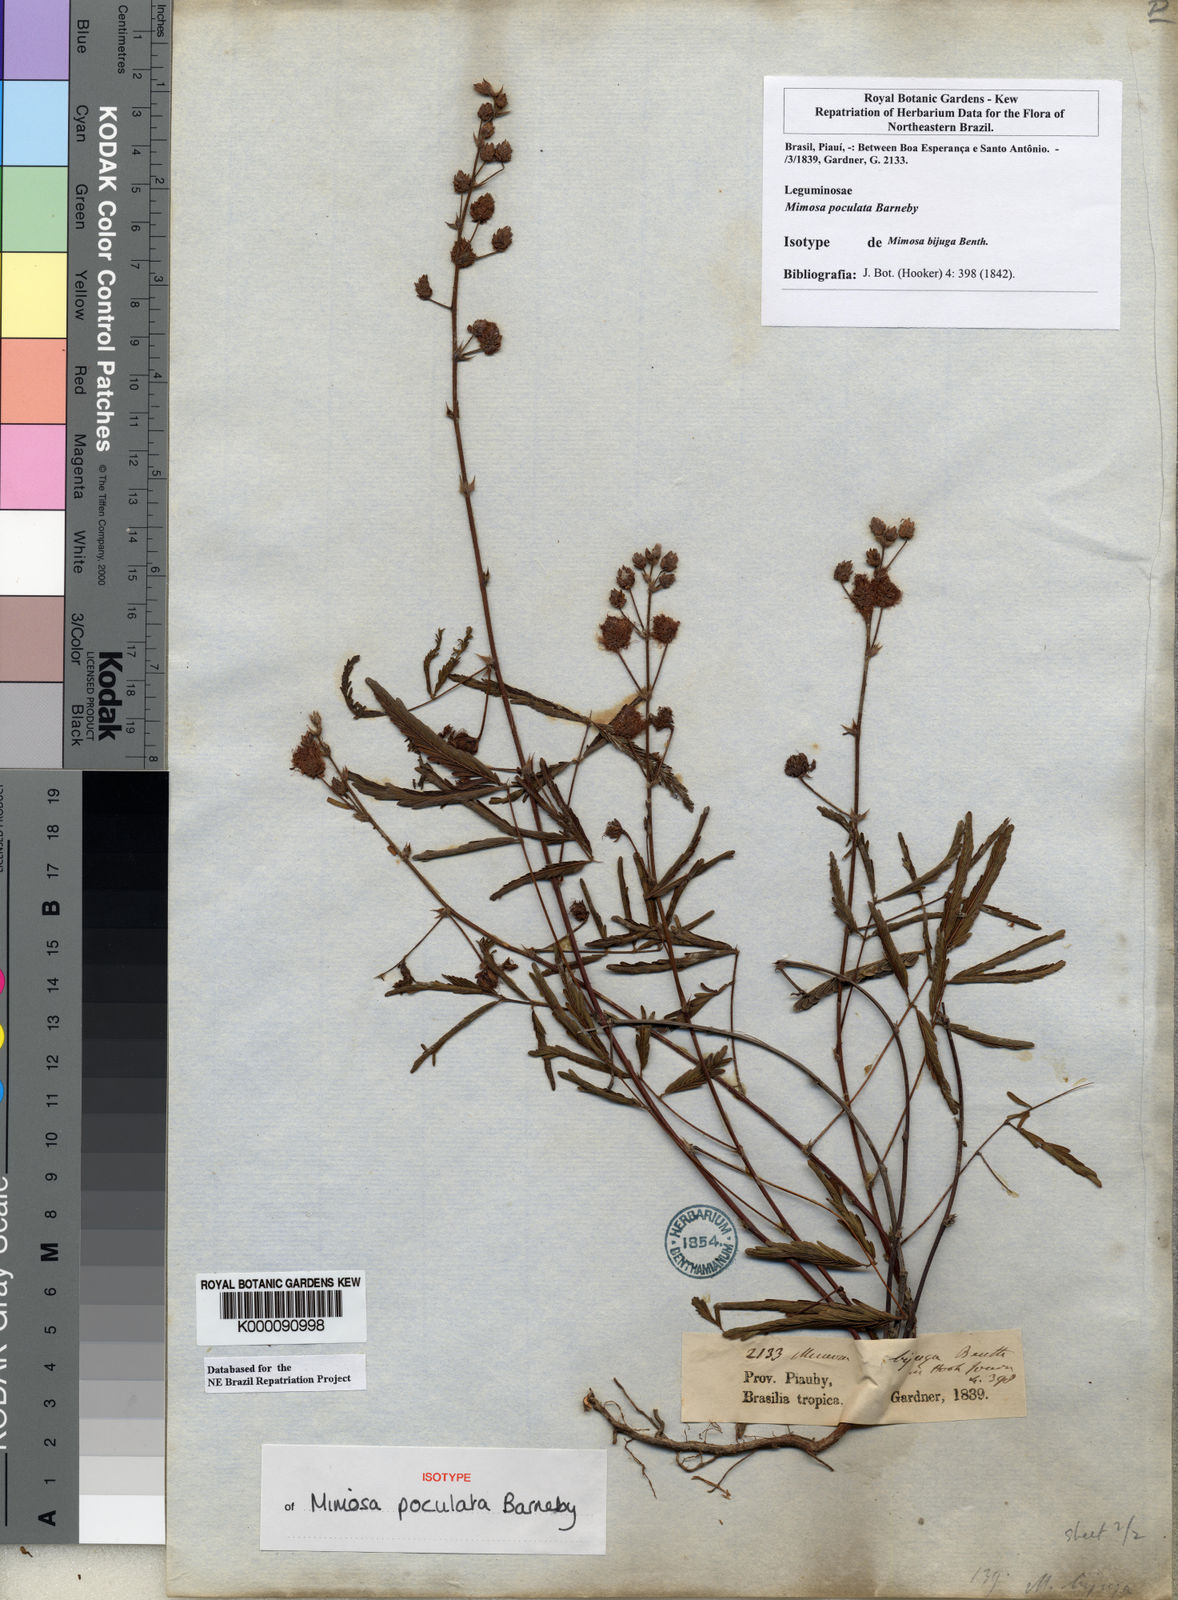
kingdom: Plantae
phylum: Tracheophyta
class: Magnoliopsida
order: Fabales
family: Fabaceae
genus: Mimosa
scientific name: Mimosa poculata
